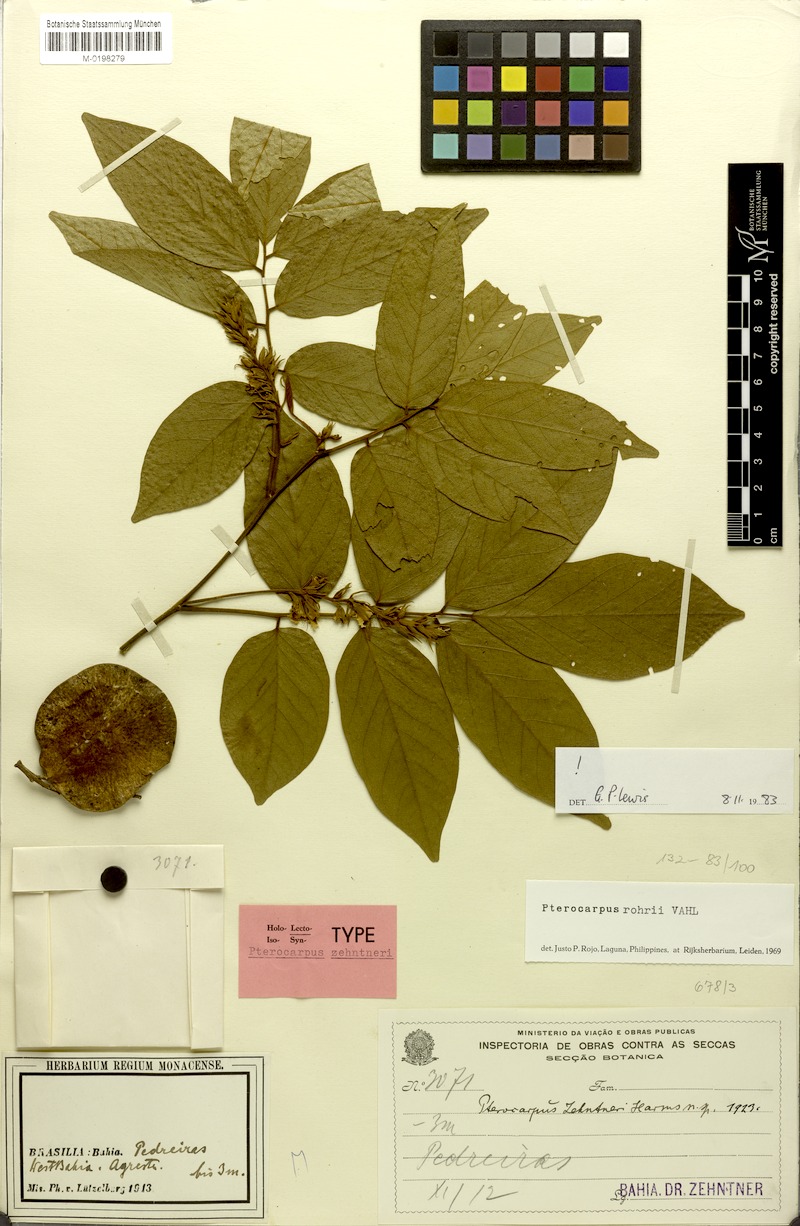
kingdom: Plantae
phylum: Tracheophyta
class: Magnoliopsida
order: Fabales
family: Fabaceae
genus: Pterocarpus
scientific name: Pterocarpus zehntneri
